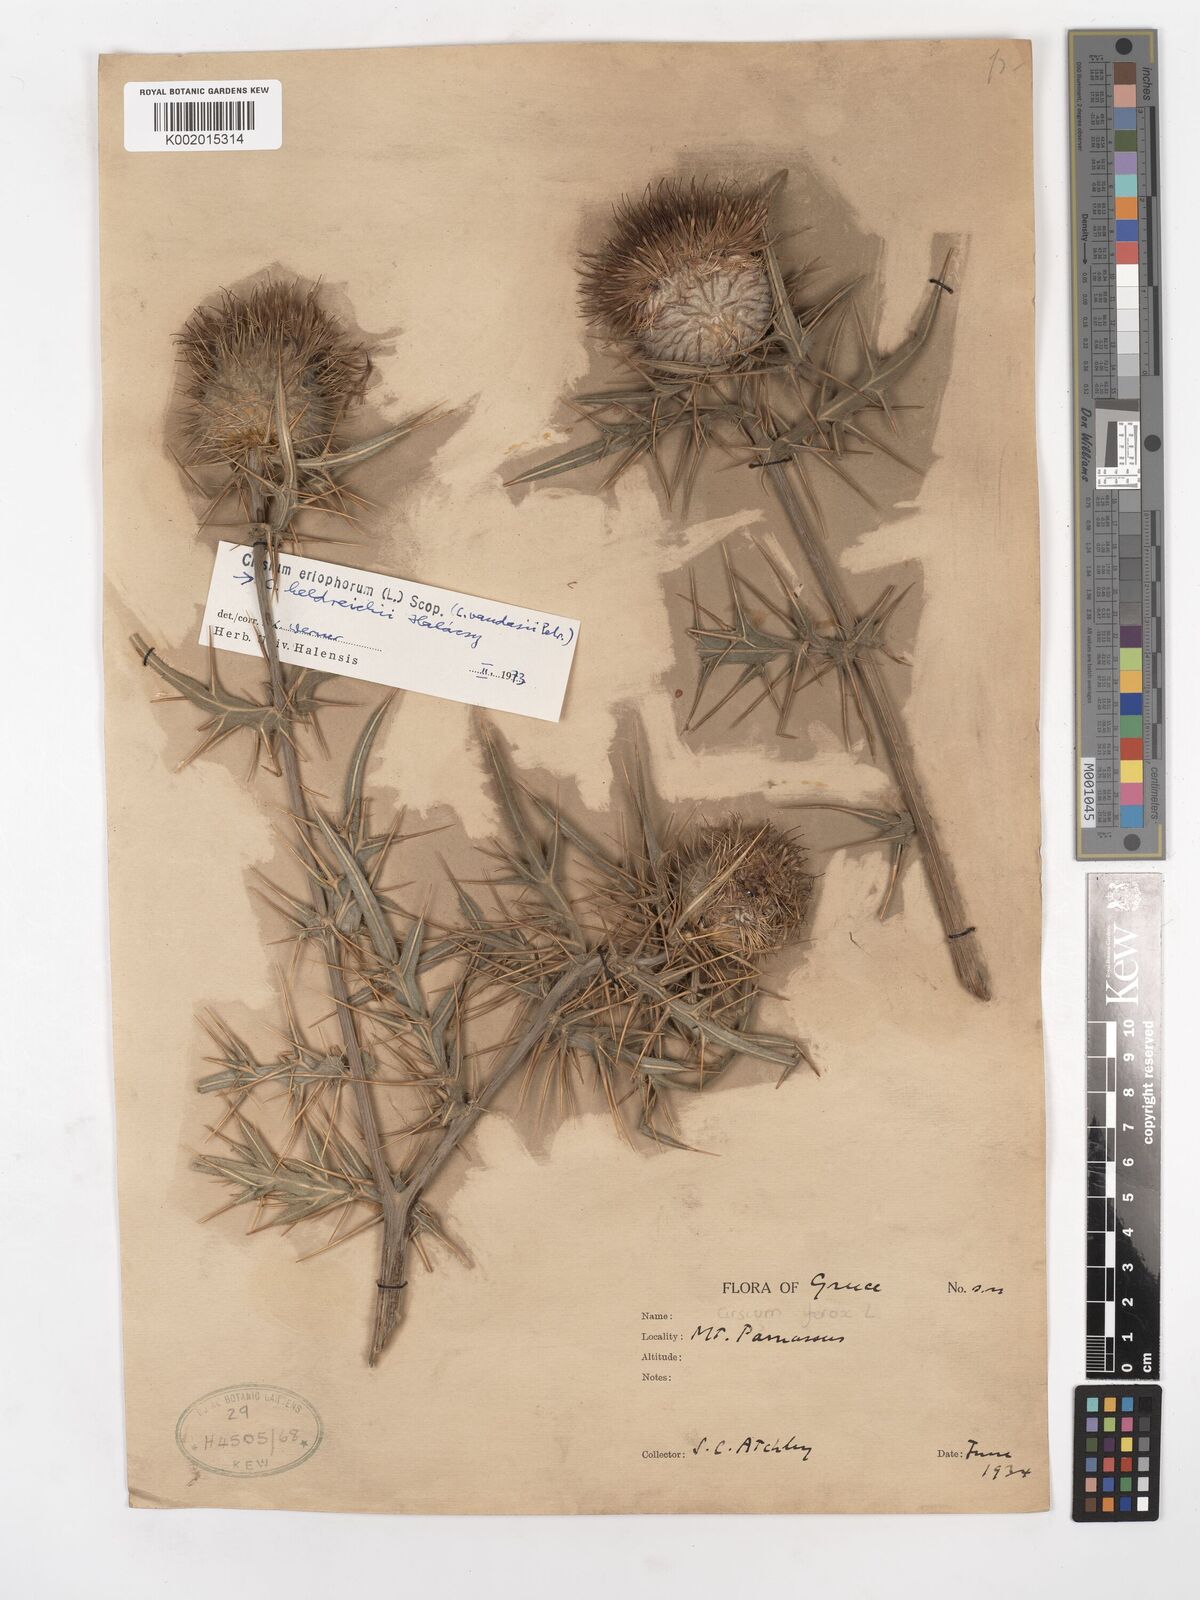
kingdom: Plantae
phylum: Tracheophyta
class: Magnoliopsida
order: Asterales
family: Asteraceae
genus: Lophiolepis
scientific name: Lophiolepis eriophora
